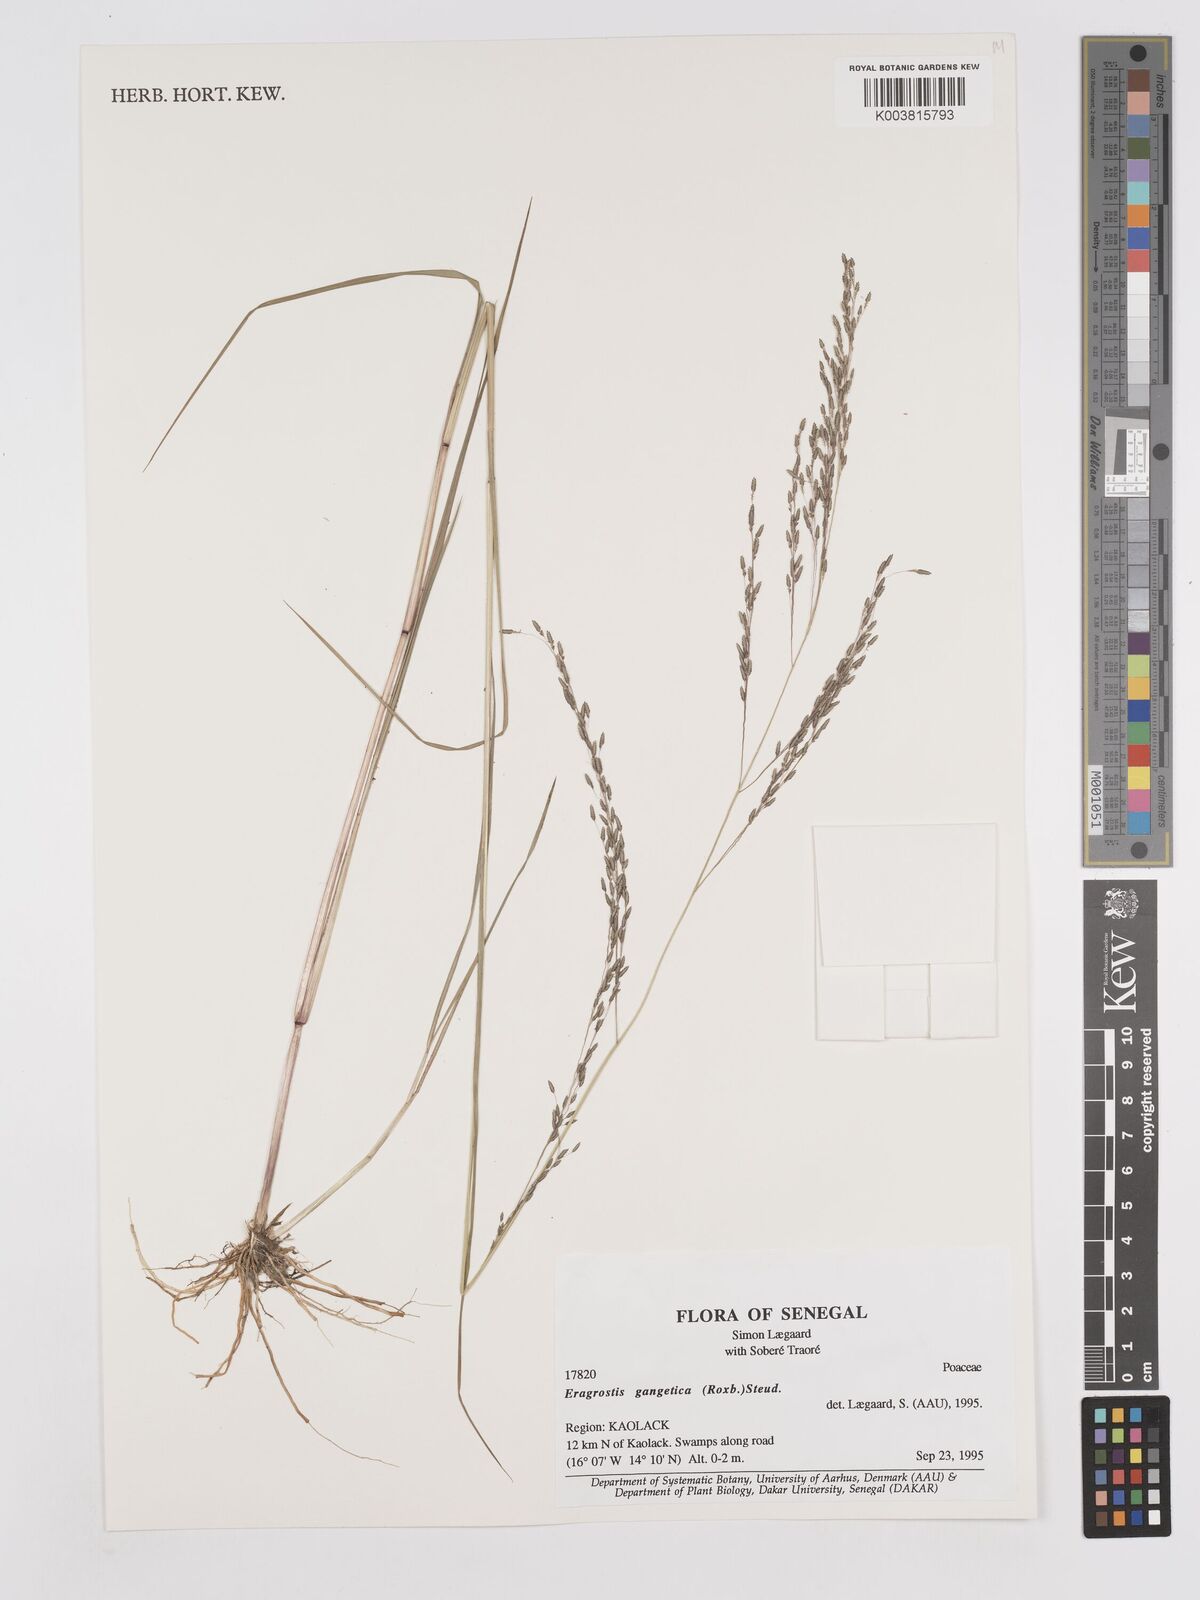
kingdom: Plantae
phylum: Tracheophyta
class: Liliopsida
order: Poales
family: Poaceae
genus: Eragrostis
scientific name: Eragrostis gangetica
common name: Slimflower lovegrass
